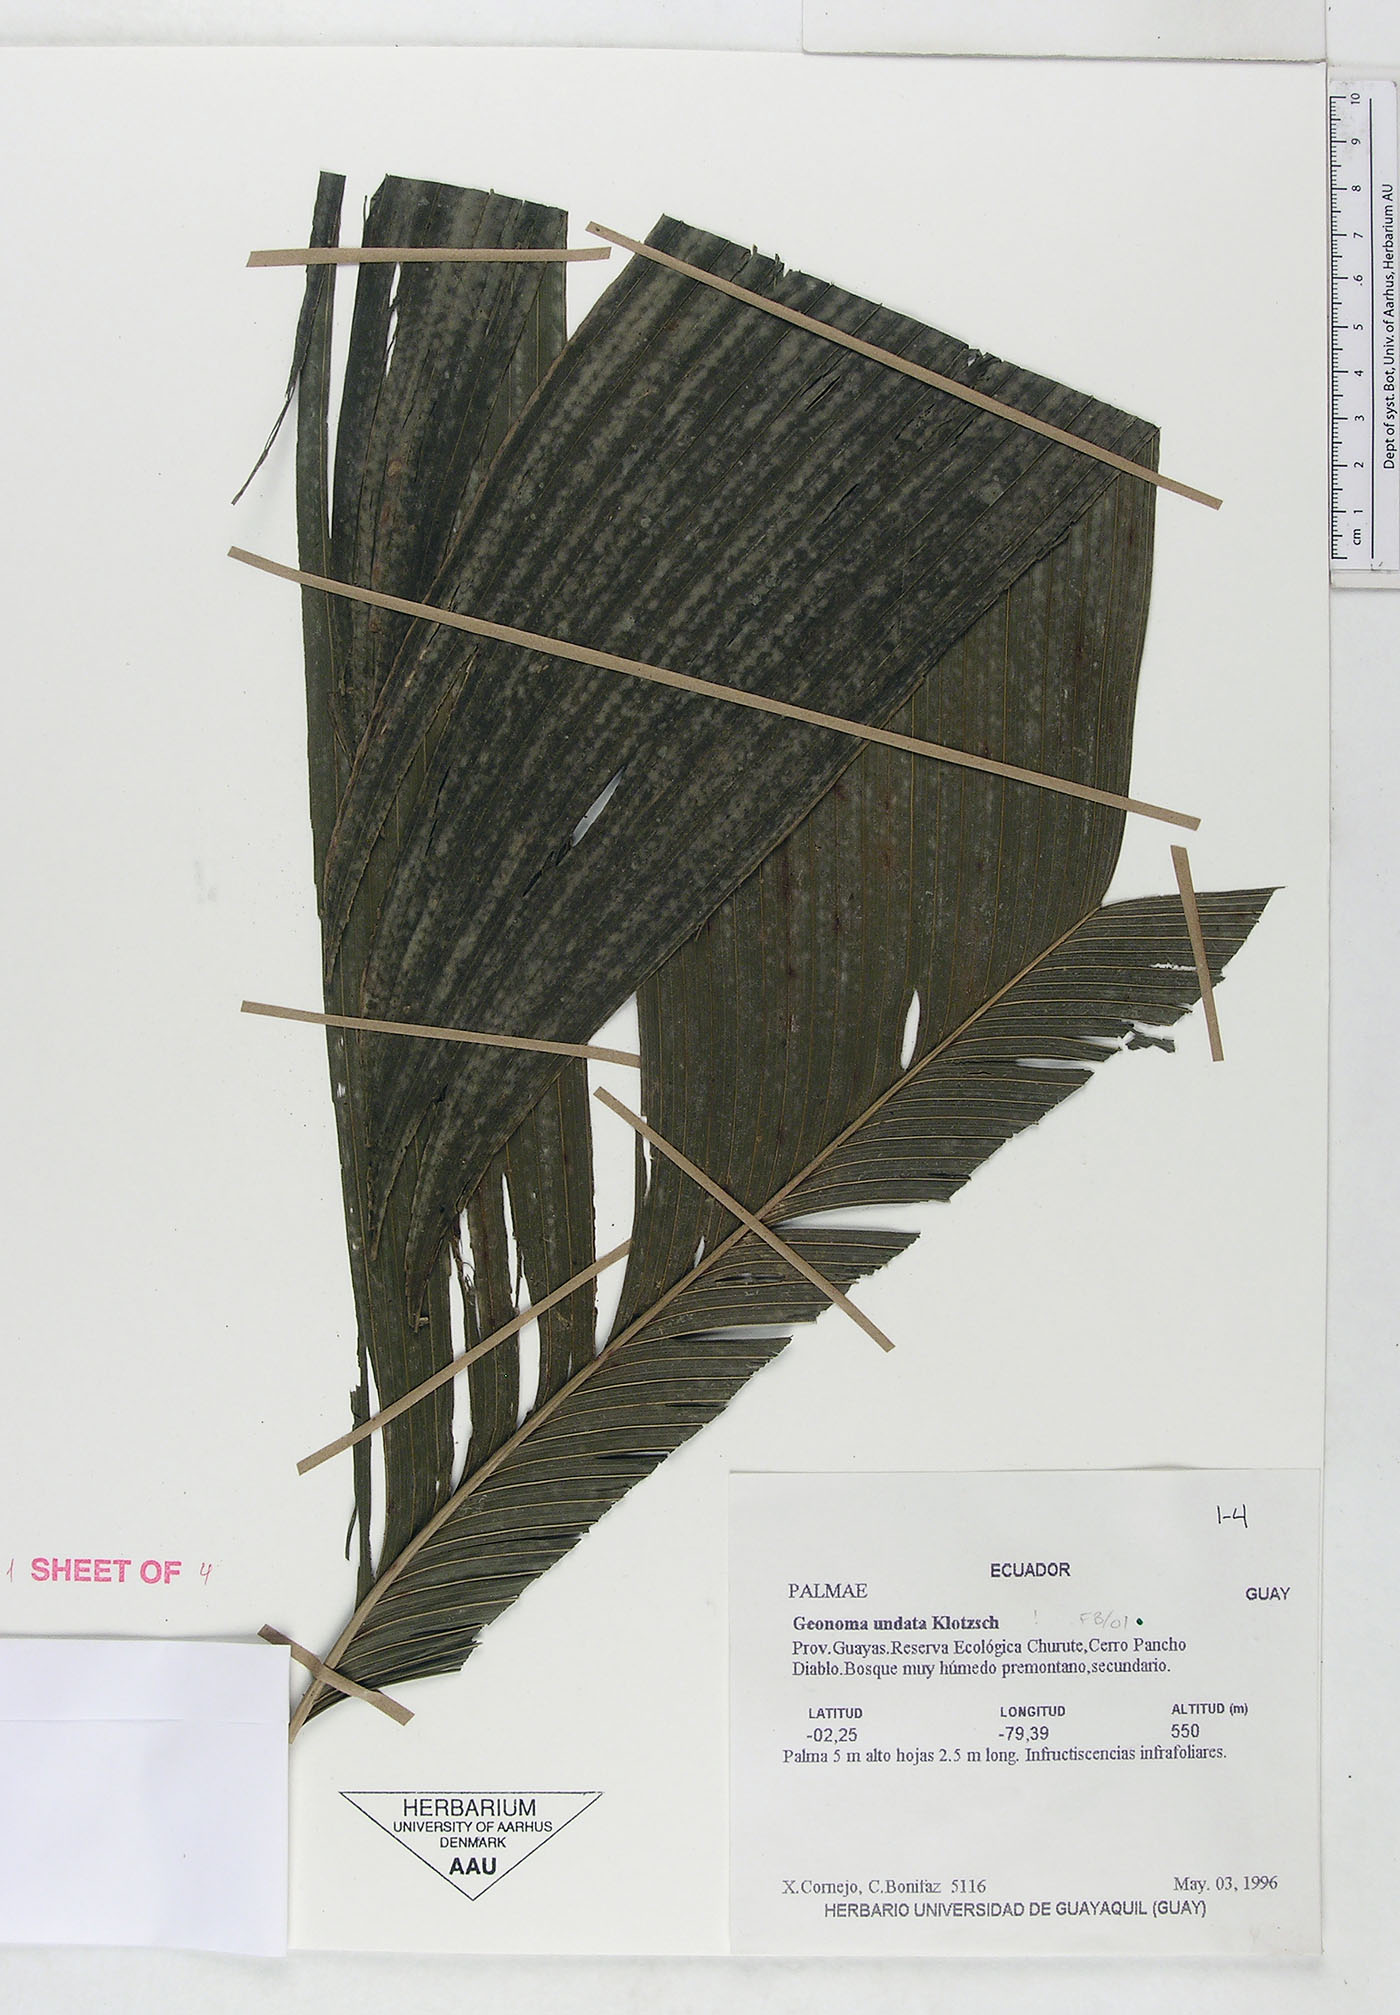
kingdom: Plantae
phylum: Tracheophyta
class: Liliopsida
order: Arecales
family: Arecaceae
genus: Geonoma
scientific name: Geonoma undata
